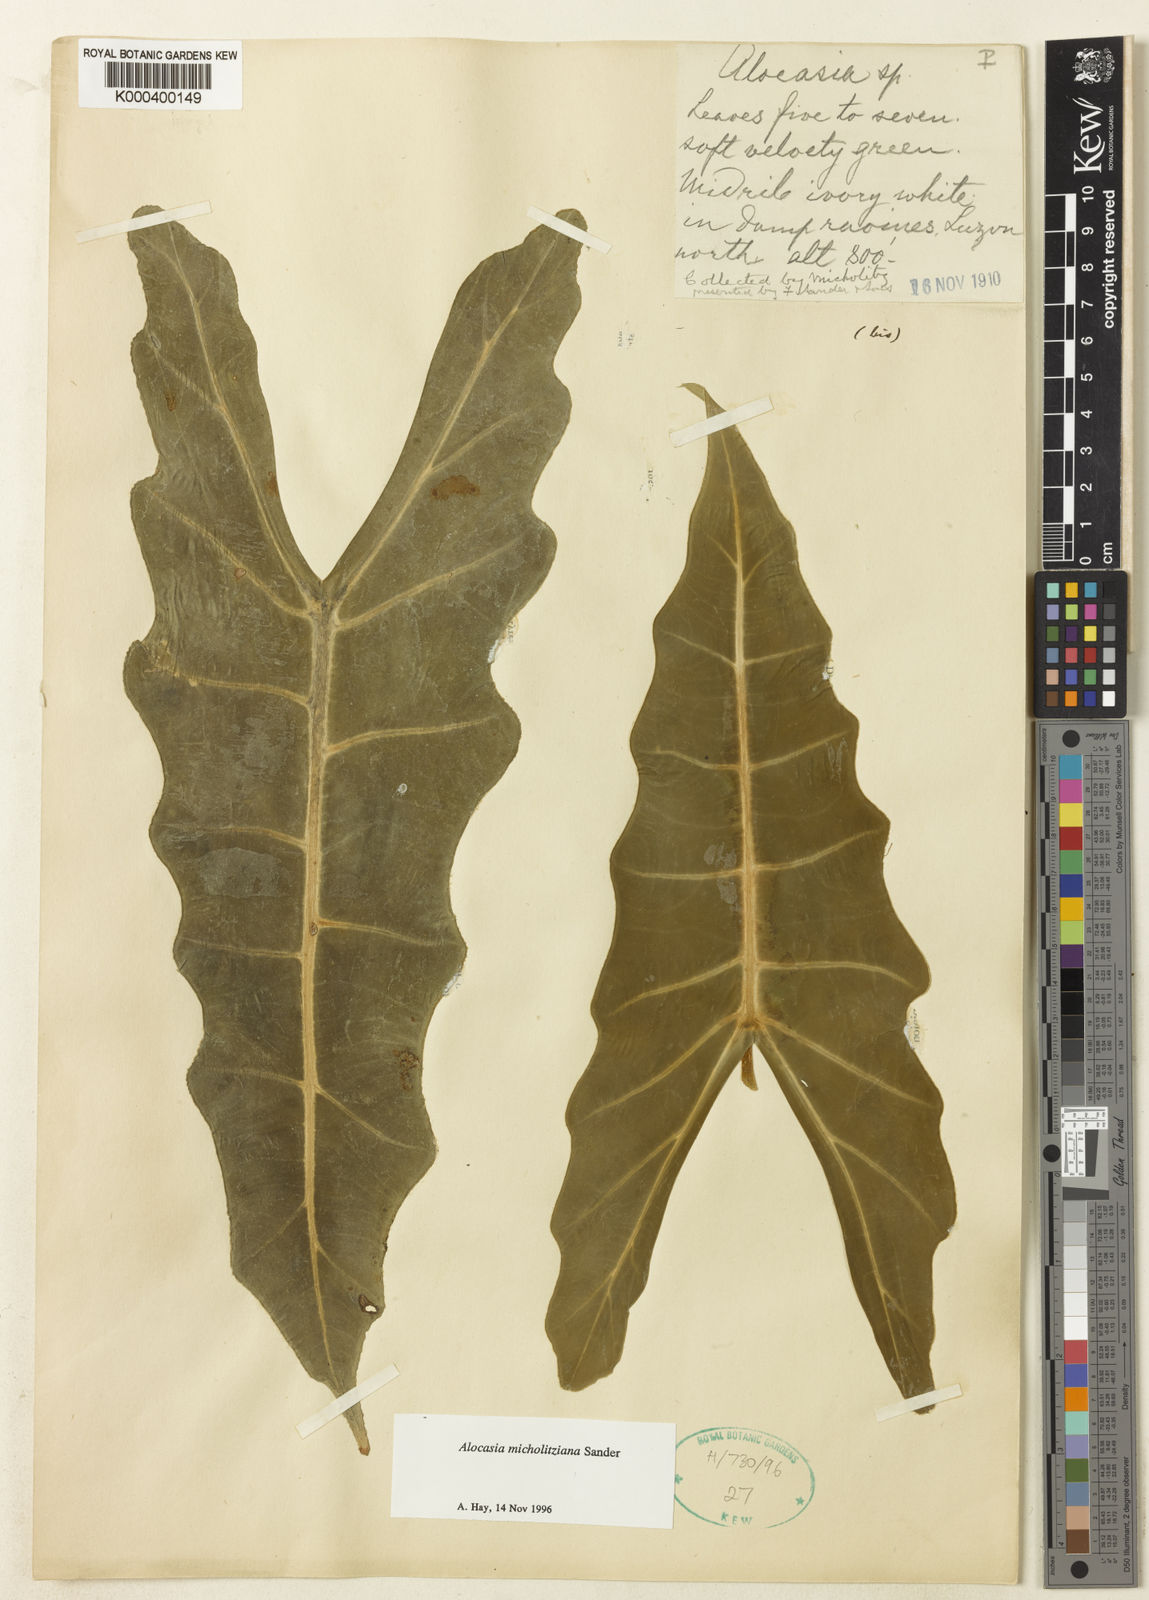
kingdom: Plantae
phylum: Tracheophyta
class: Liliopsida
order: Alismatales
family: Araceae
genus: Alocasia
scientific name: Alocasia micholitziana
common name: Green-velvet alocasia
